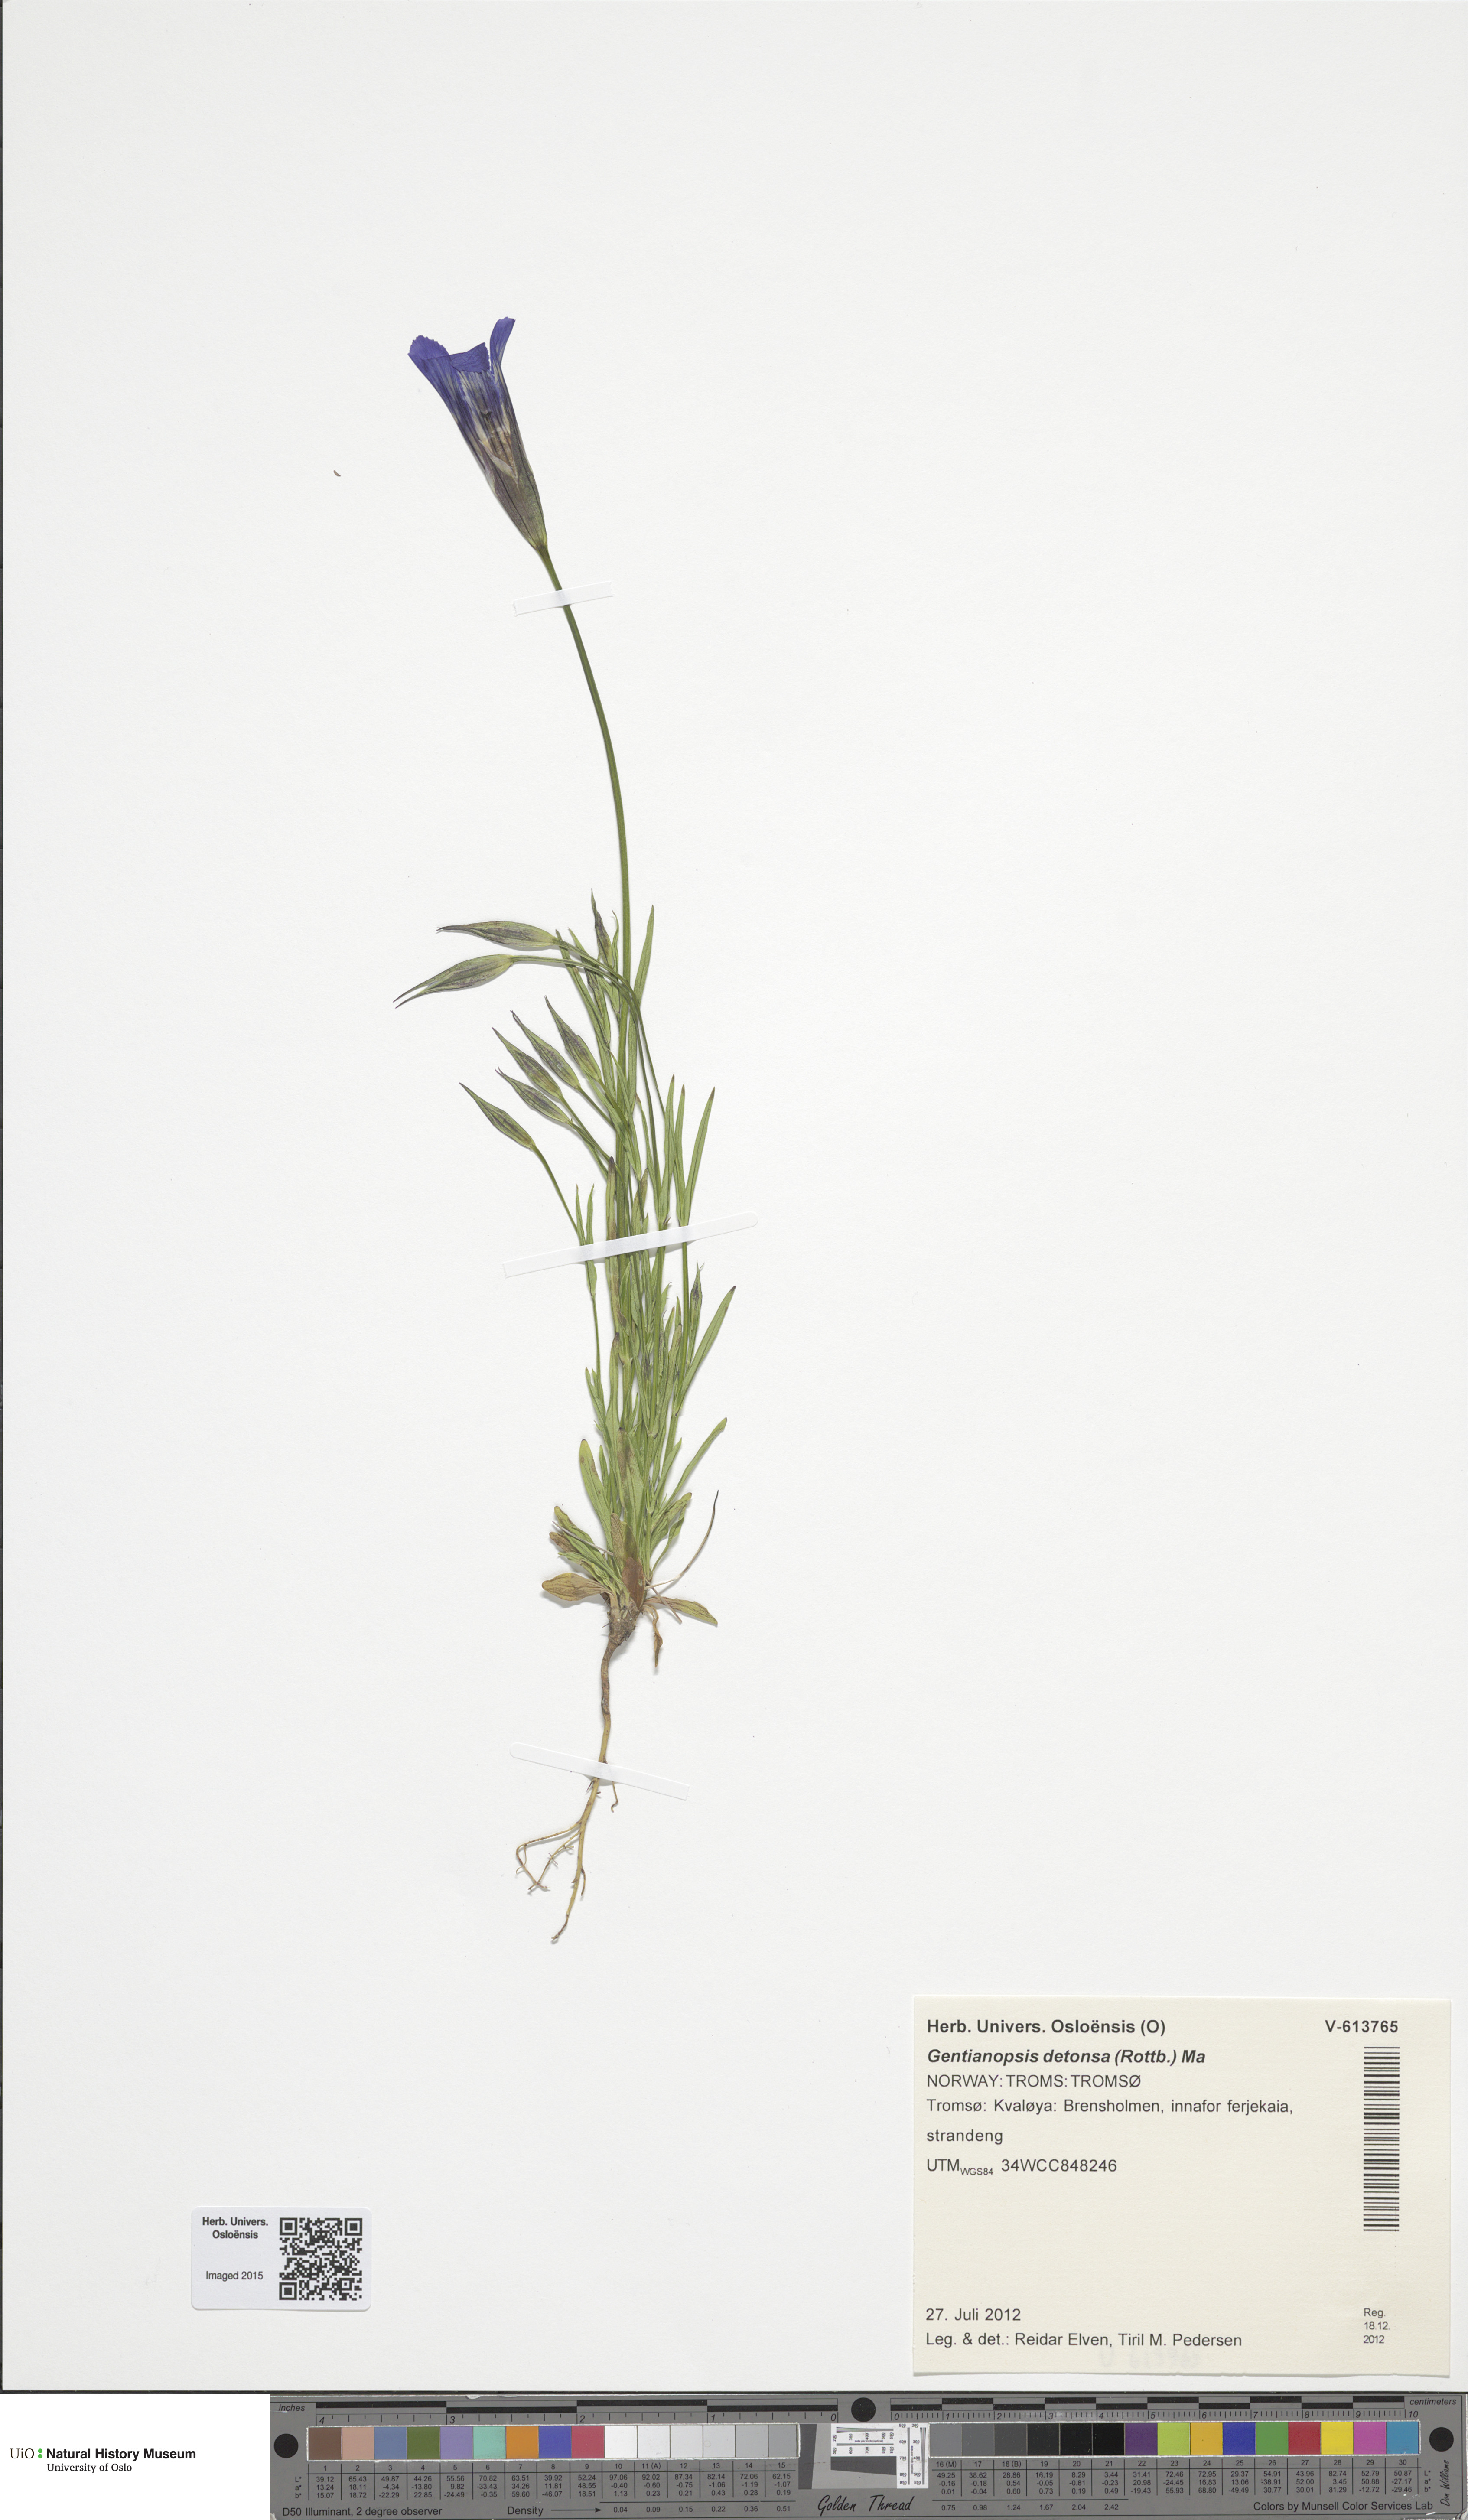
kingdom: Plantae
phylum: Tracheophyta
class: Magnoliopsida
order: Gentianales
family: Gentianaceae
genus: Gentianopsis
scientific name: Gentianopsis detonsa
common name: Fringed-gentian
